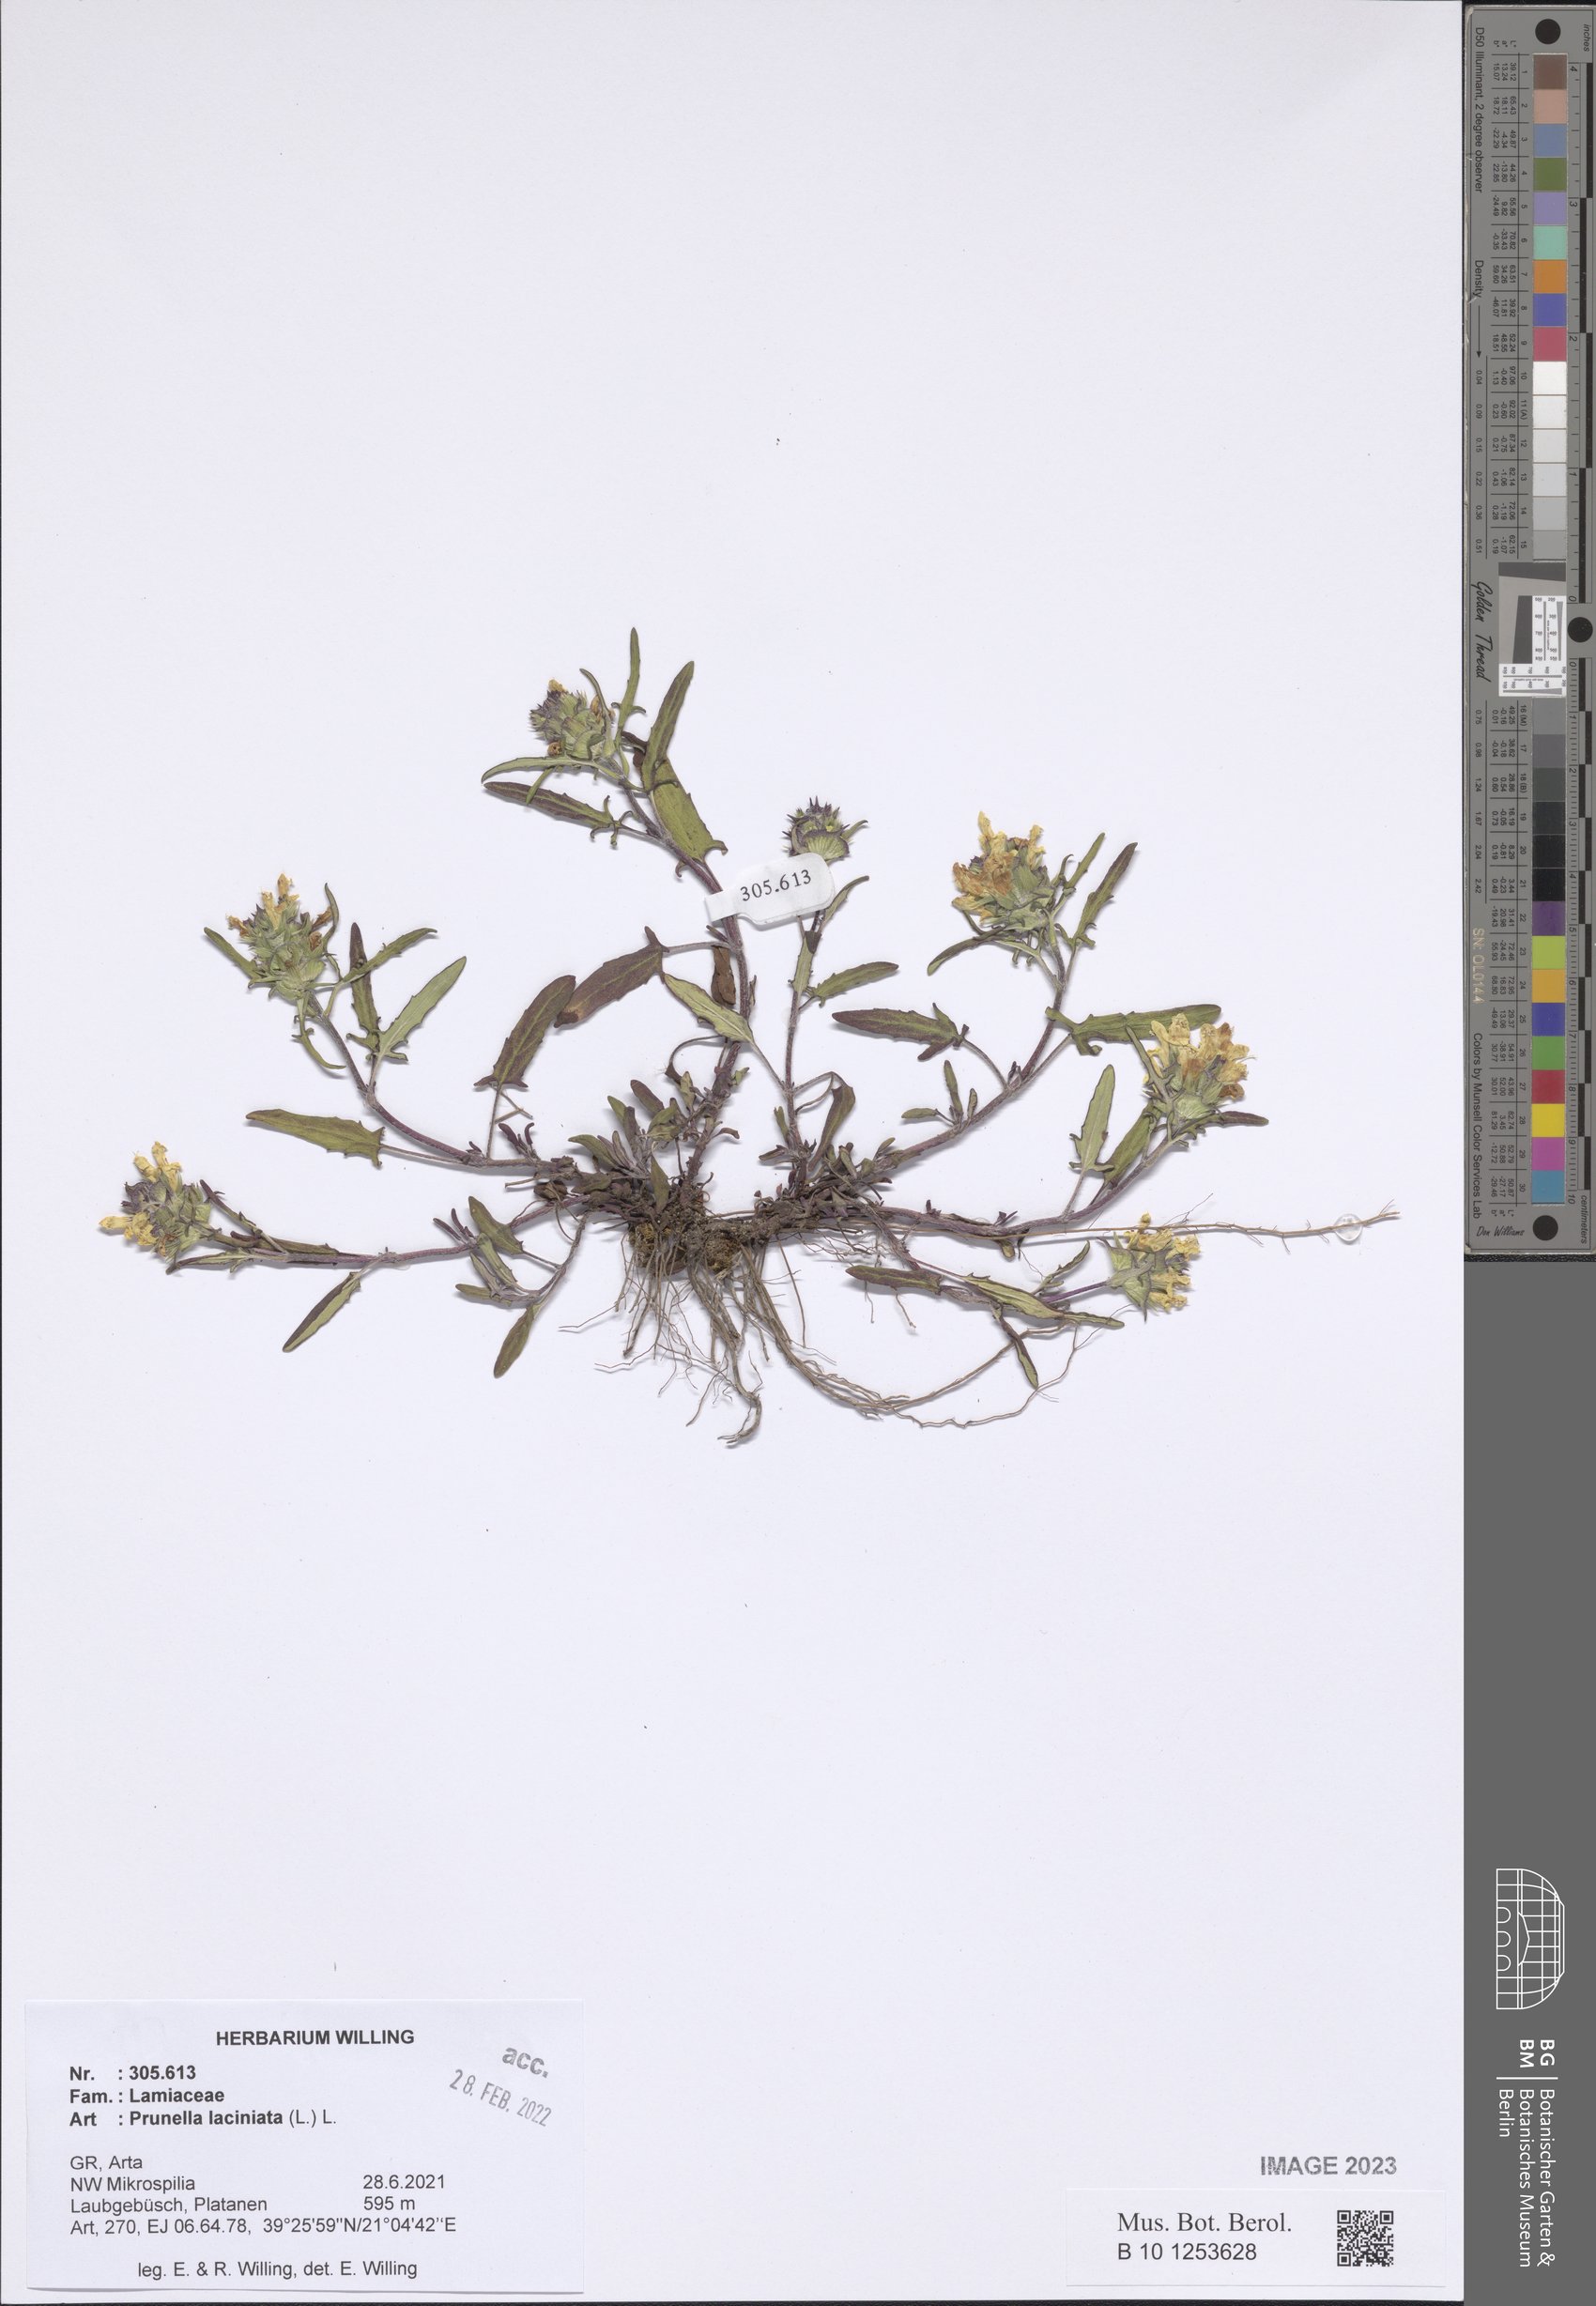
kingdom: Plantae
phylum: Tracheophyta
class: Magnoliopsida
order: Lamiales
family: Lamiaceae
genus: Prunella
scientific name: Prunella laciniata
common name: Cut-leaved selfheal
